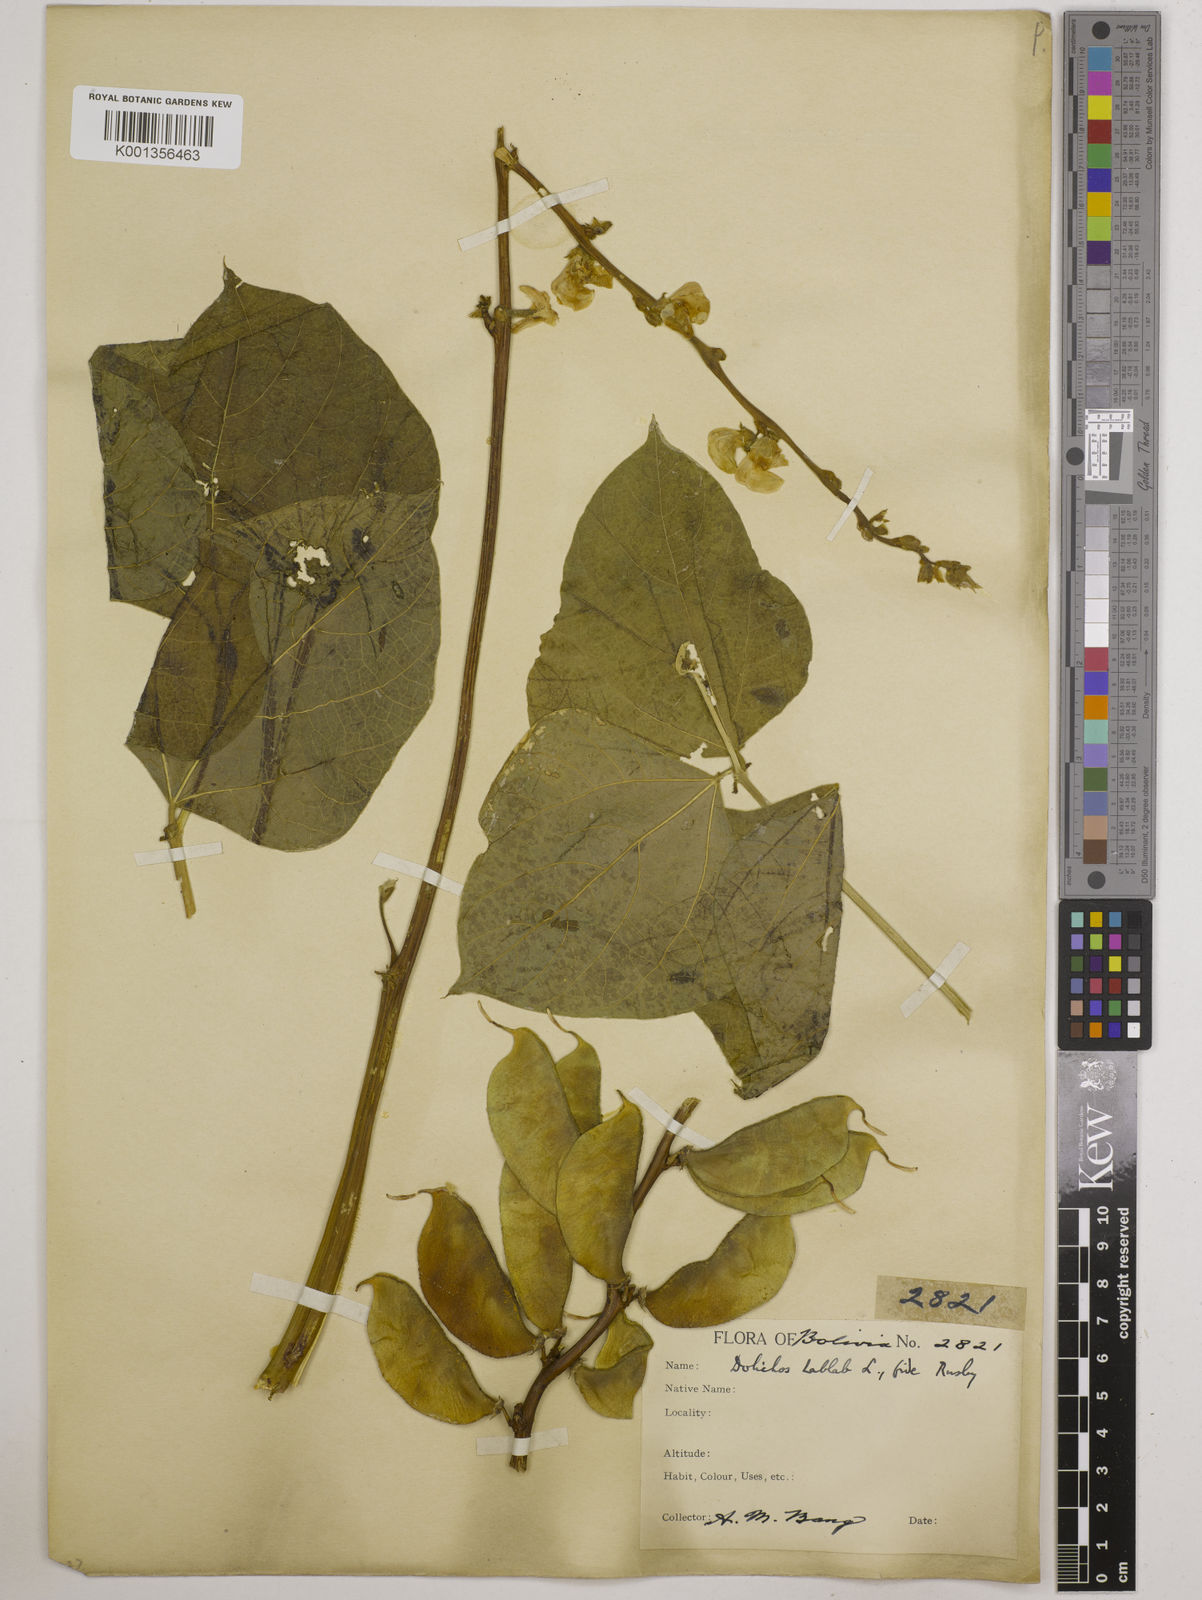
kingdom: Plantae
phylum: Tracheophyta
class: Magnoliopsida
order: Fabales
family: Fabaceae
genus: Lablab
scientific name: Lablab purpureus
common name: Lablab-bean
